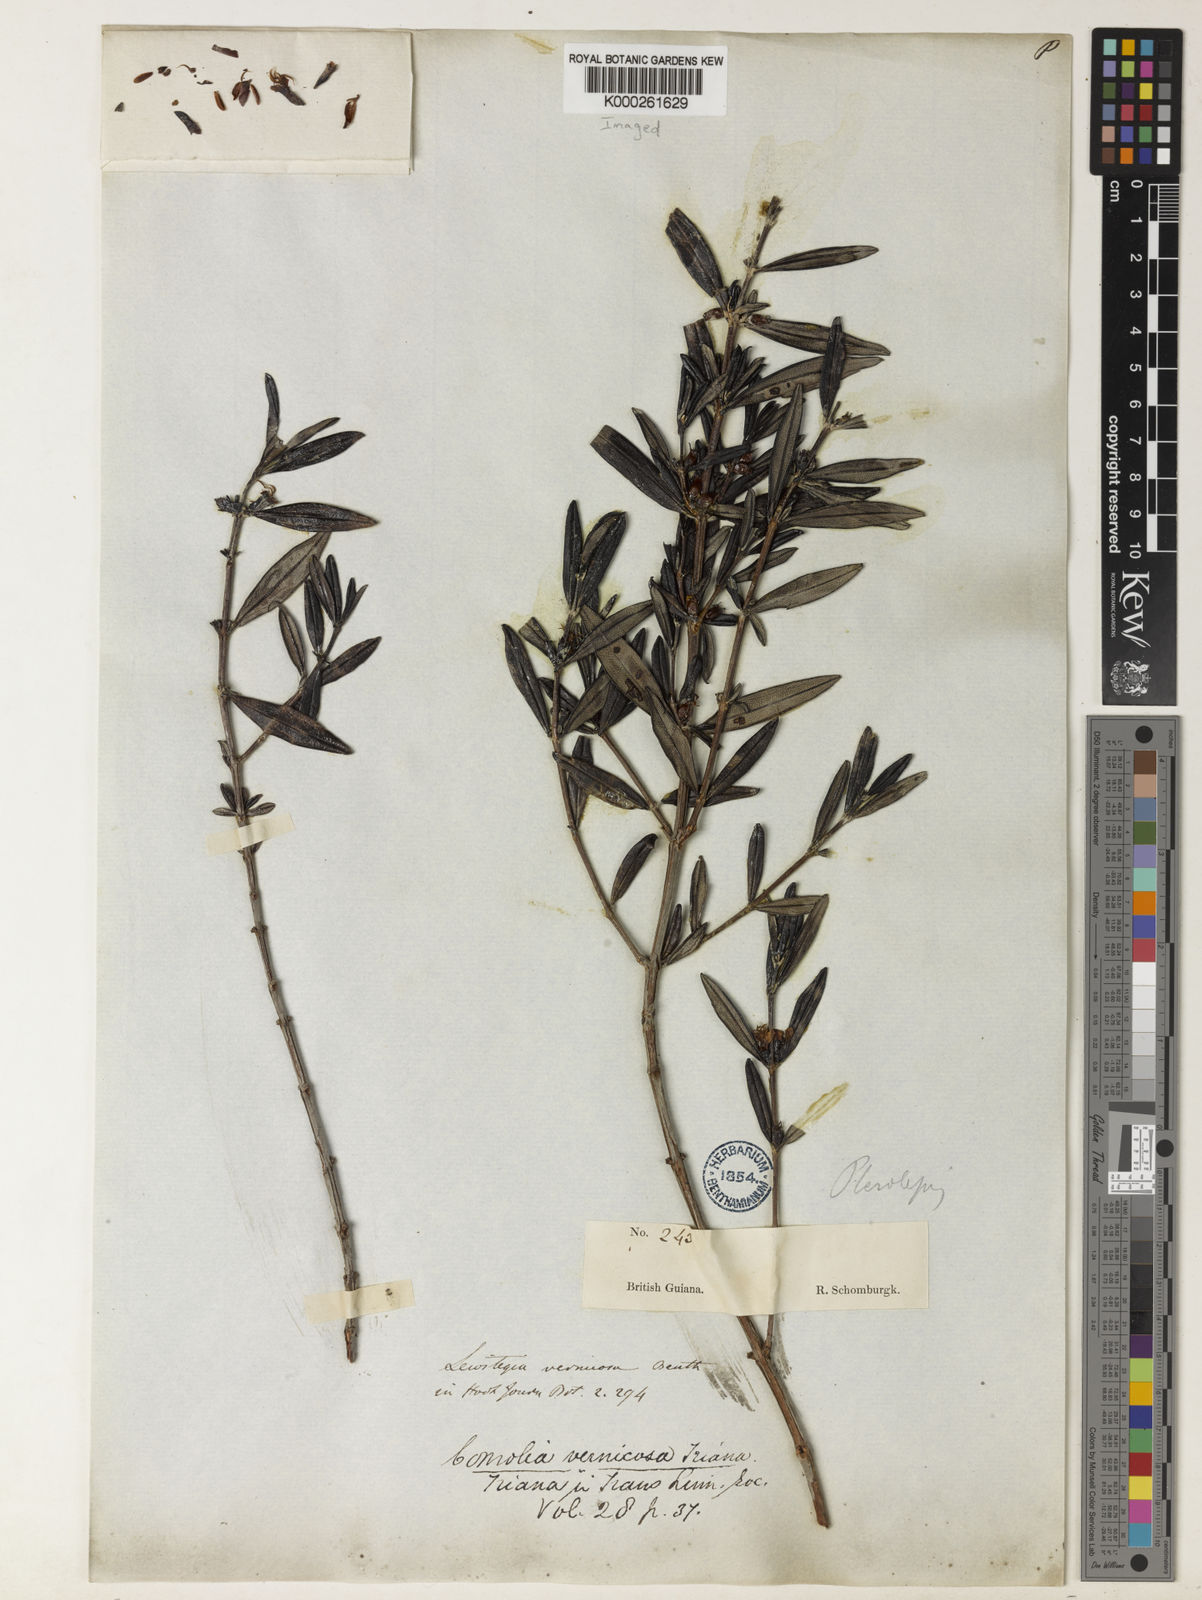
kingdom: Plantae
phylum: Tracheophyta
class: Magnoliopsida
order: Myrtales
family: Melastomataceae
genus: Leiostegia
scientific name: Leiostegia vernicosa
